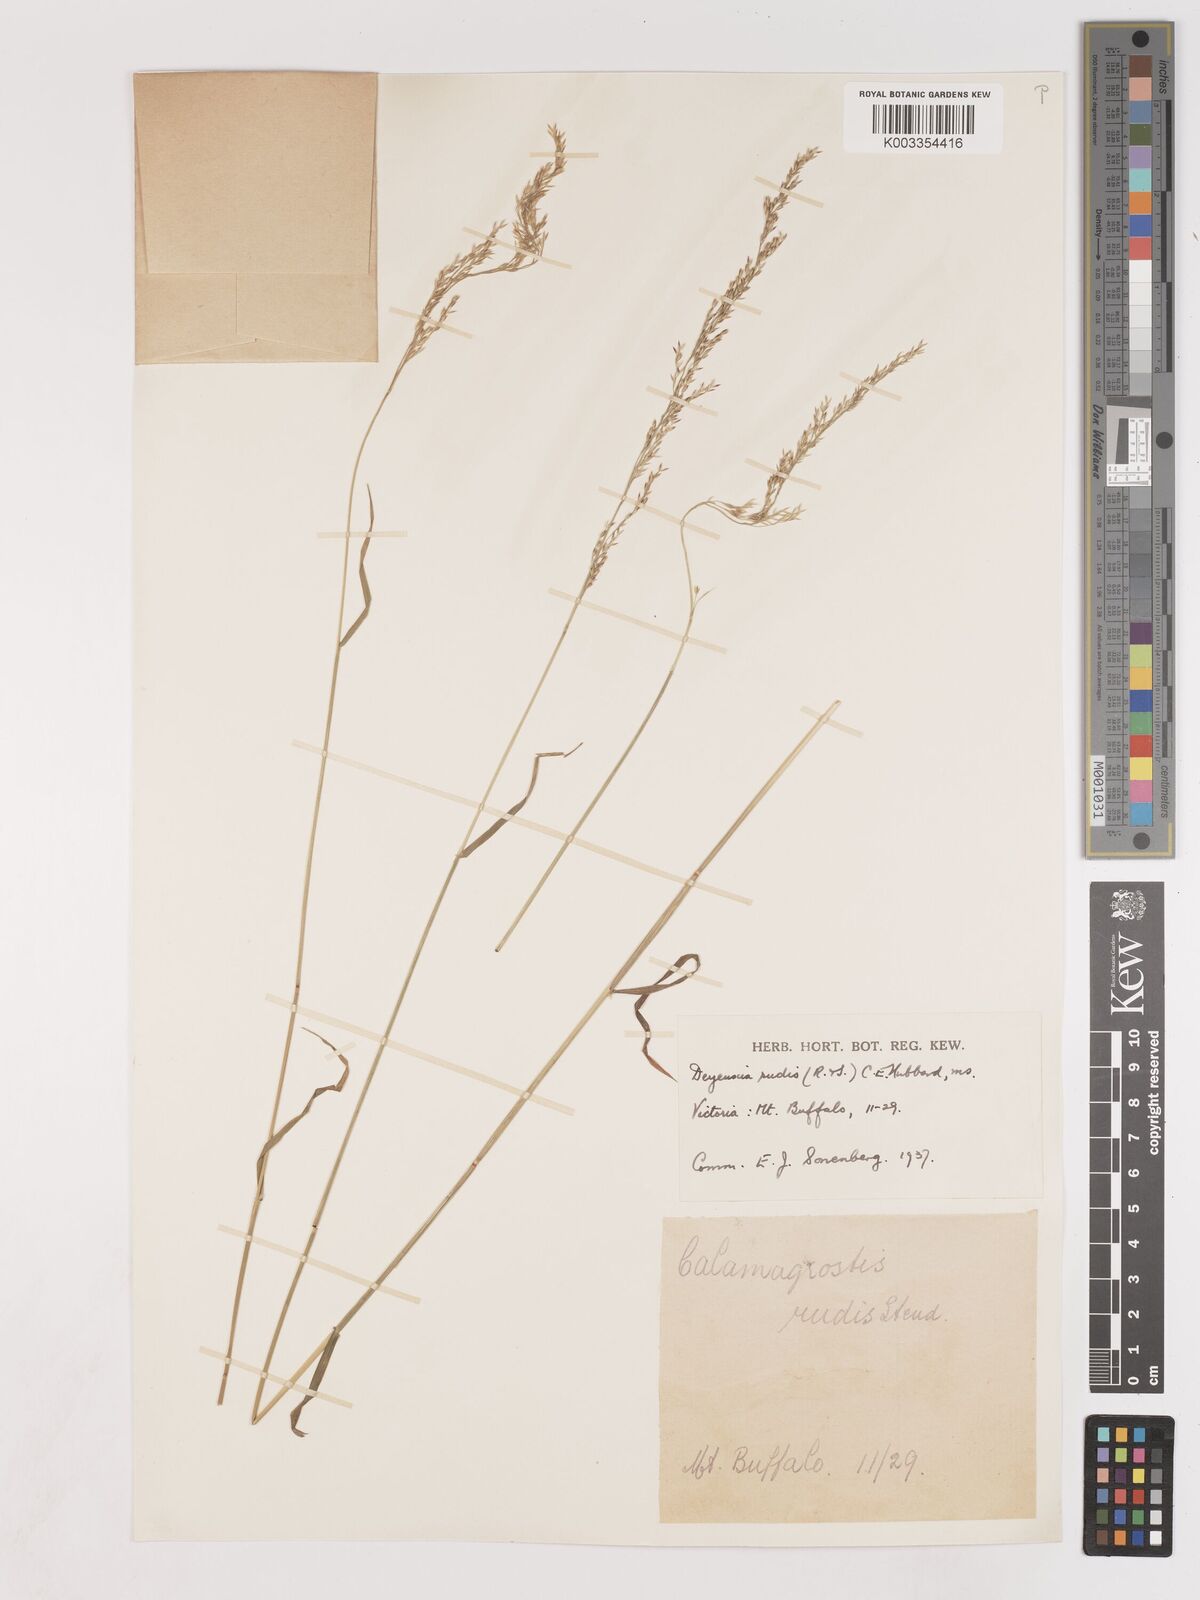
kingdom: Plantae
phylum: Tracheophyta
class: Liliopsida
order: Poales
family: Poaceae
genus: Calamagrostis
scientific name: Calamagrostis
